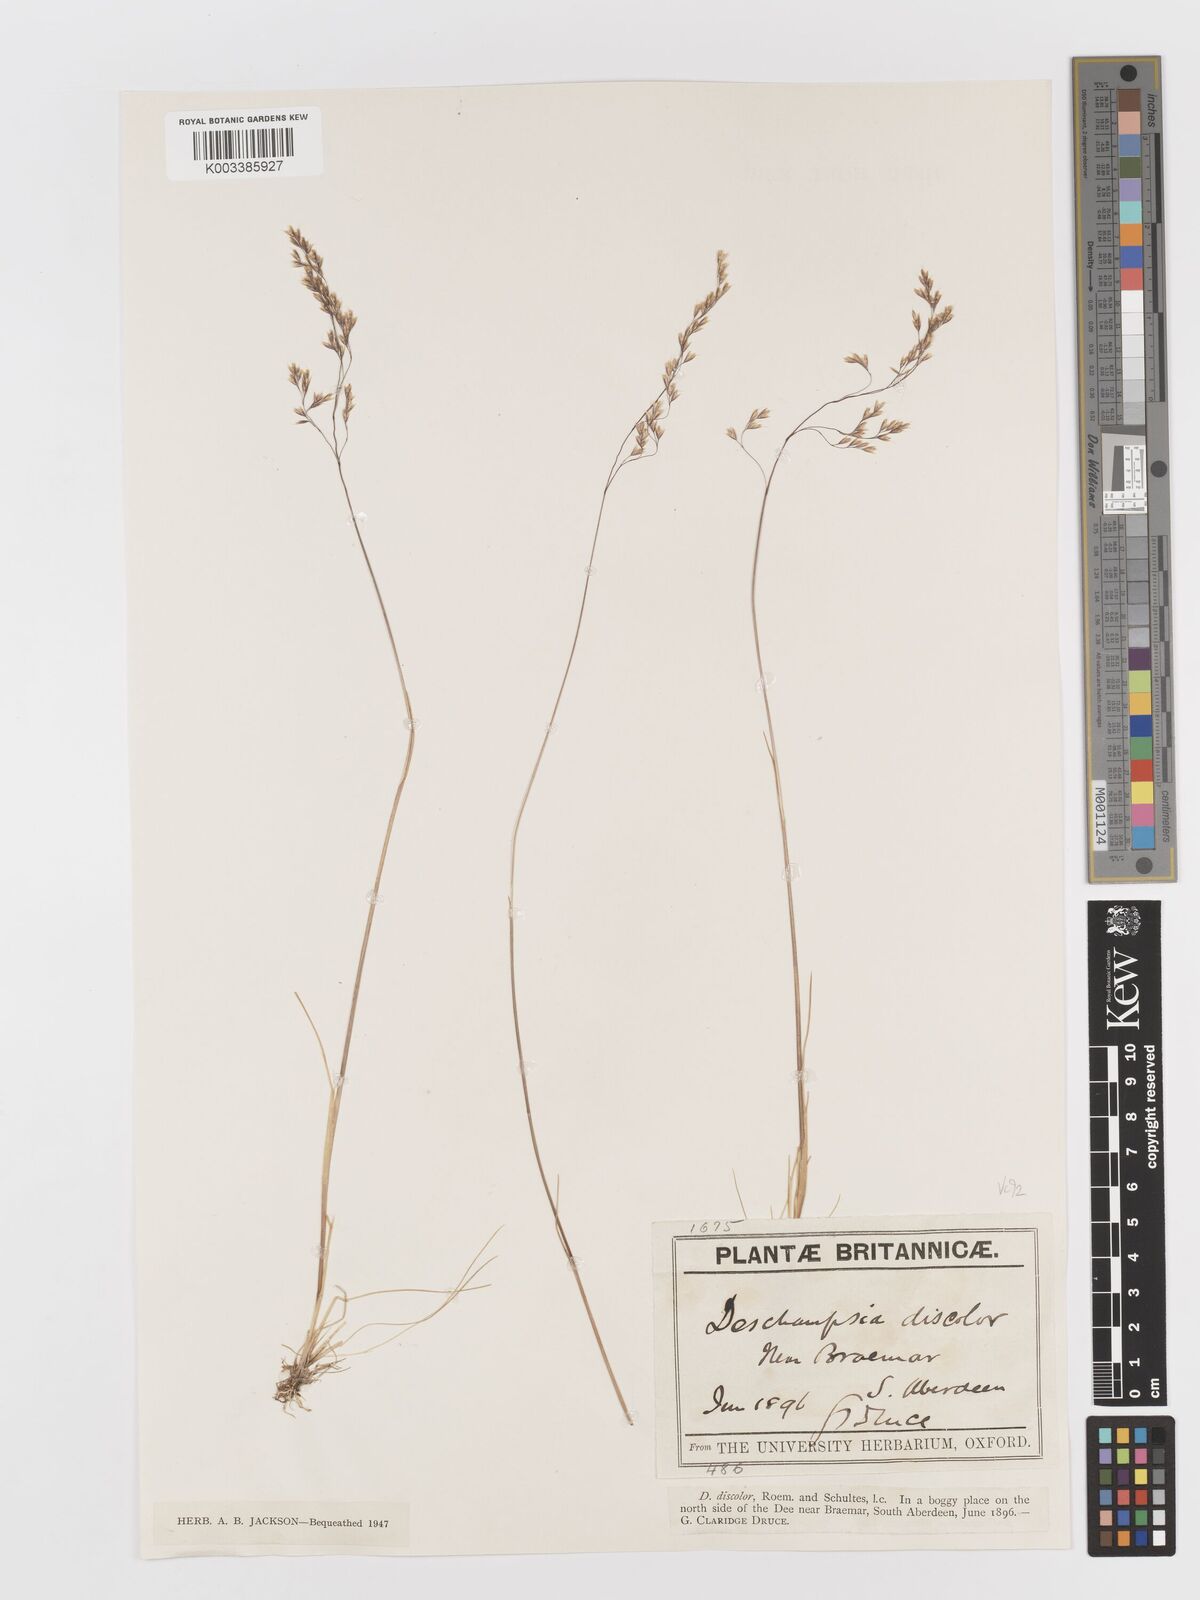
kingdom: Plantae
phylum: Tracheophyta
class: Liliopsida
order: Poales
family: Poaceae
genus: Avenella
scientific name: Avenella flexuosa
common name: Wavy hairgrass
